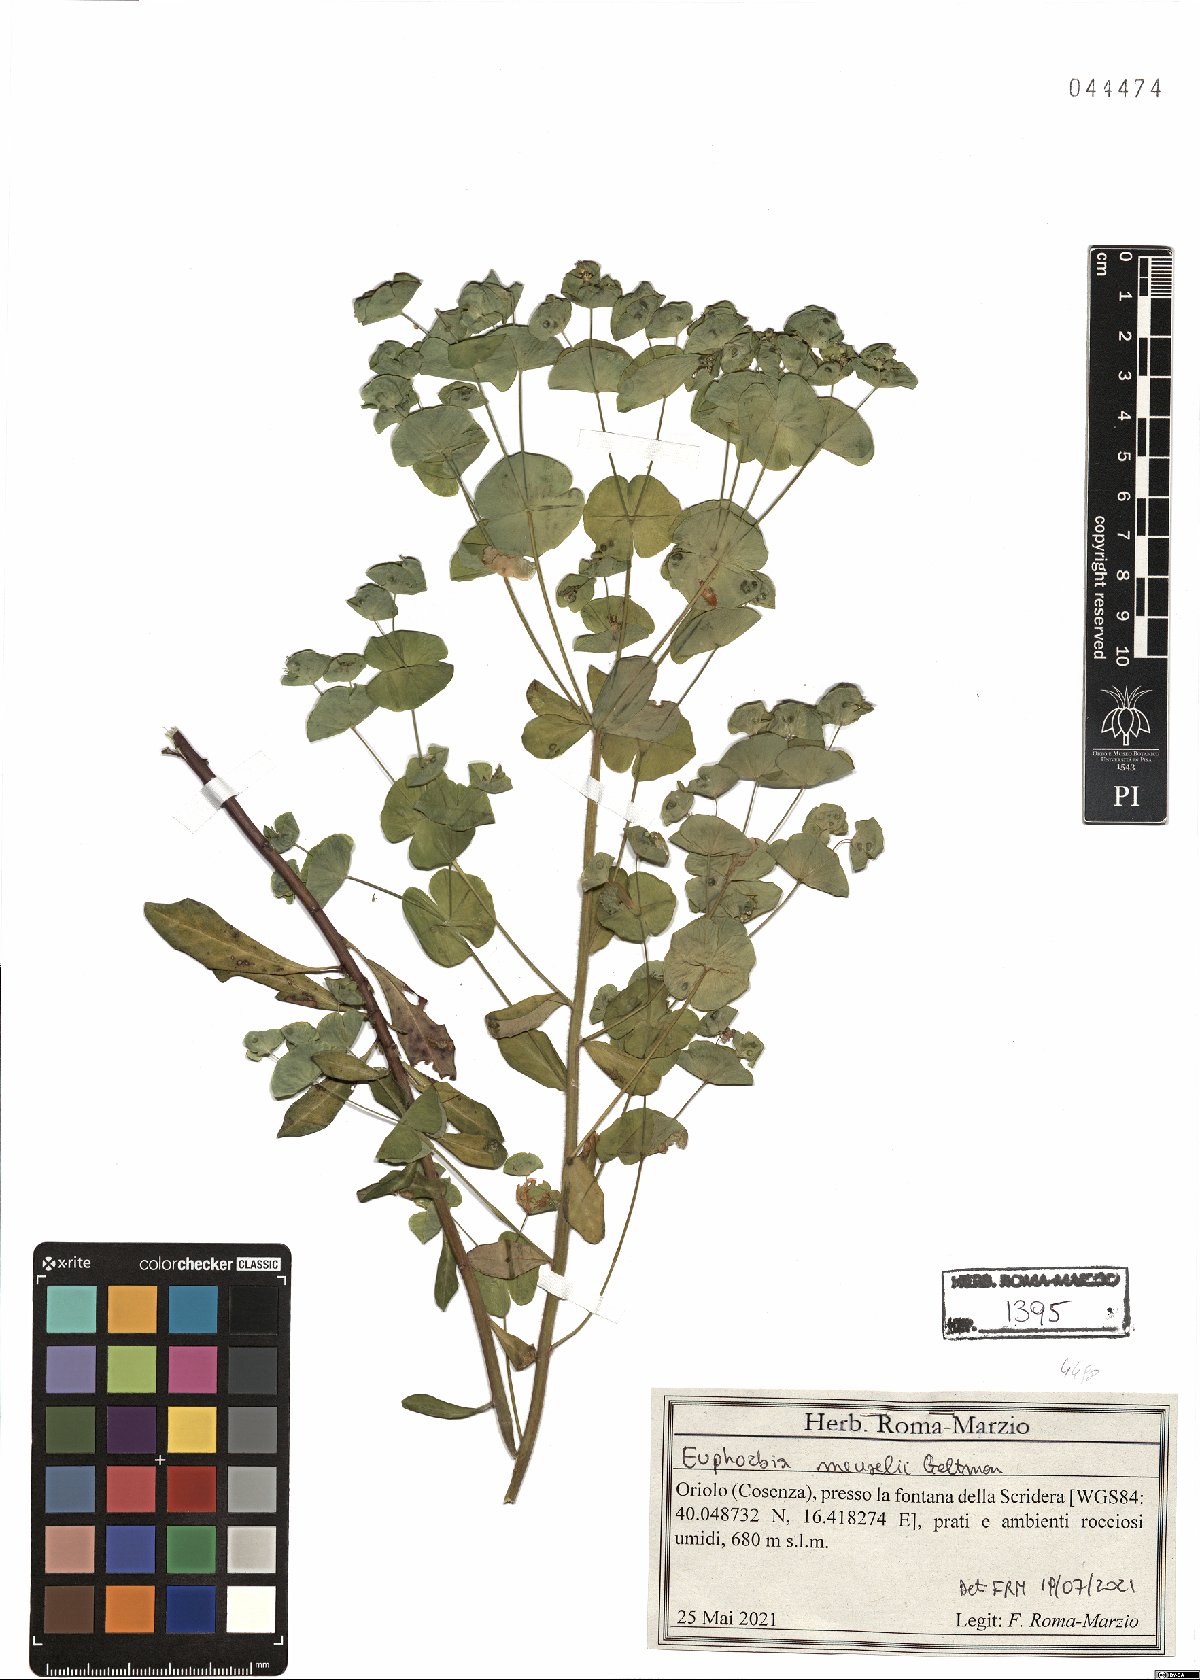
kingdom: Plantae
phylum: Tracheophyta
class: Magnoliopsida
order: Malpighiales
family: Euphorbiaceae
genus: Euphorbia
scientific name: Euphorbia meuselii
